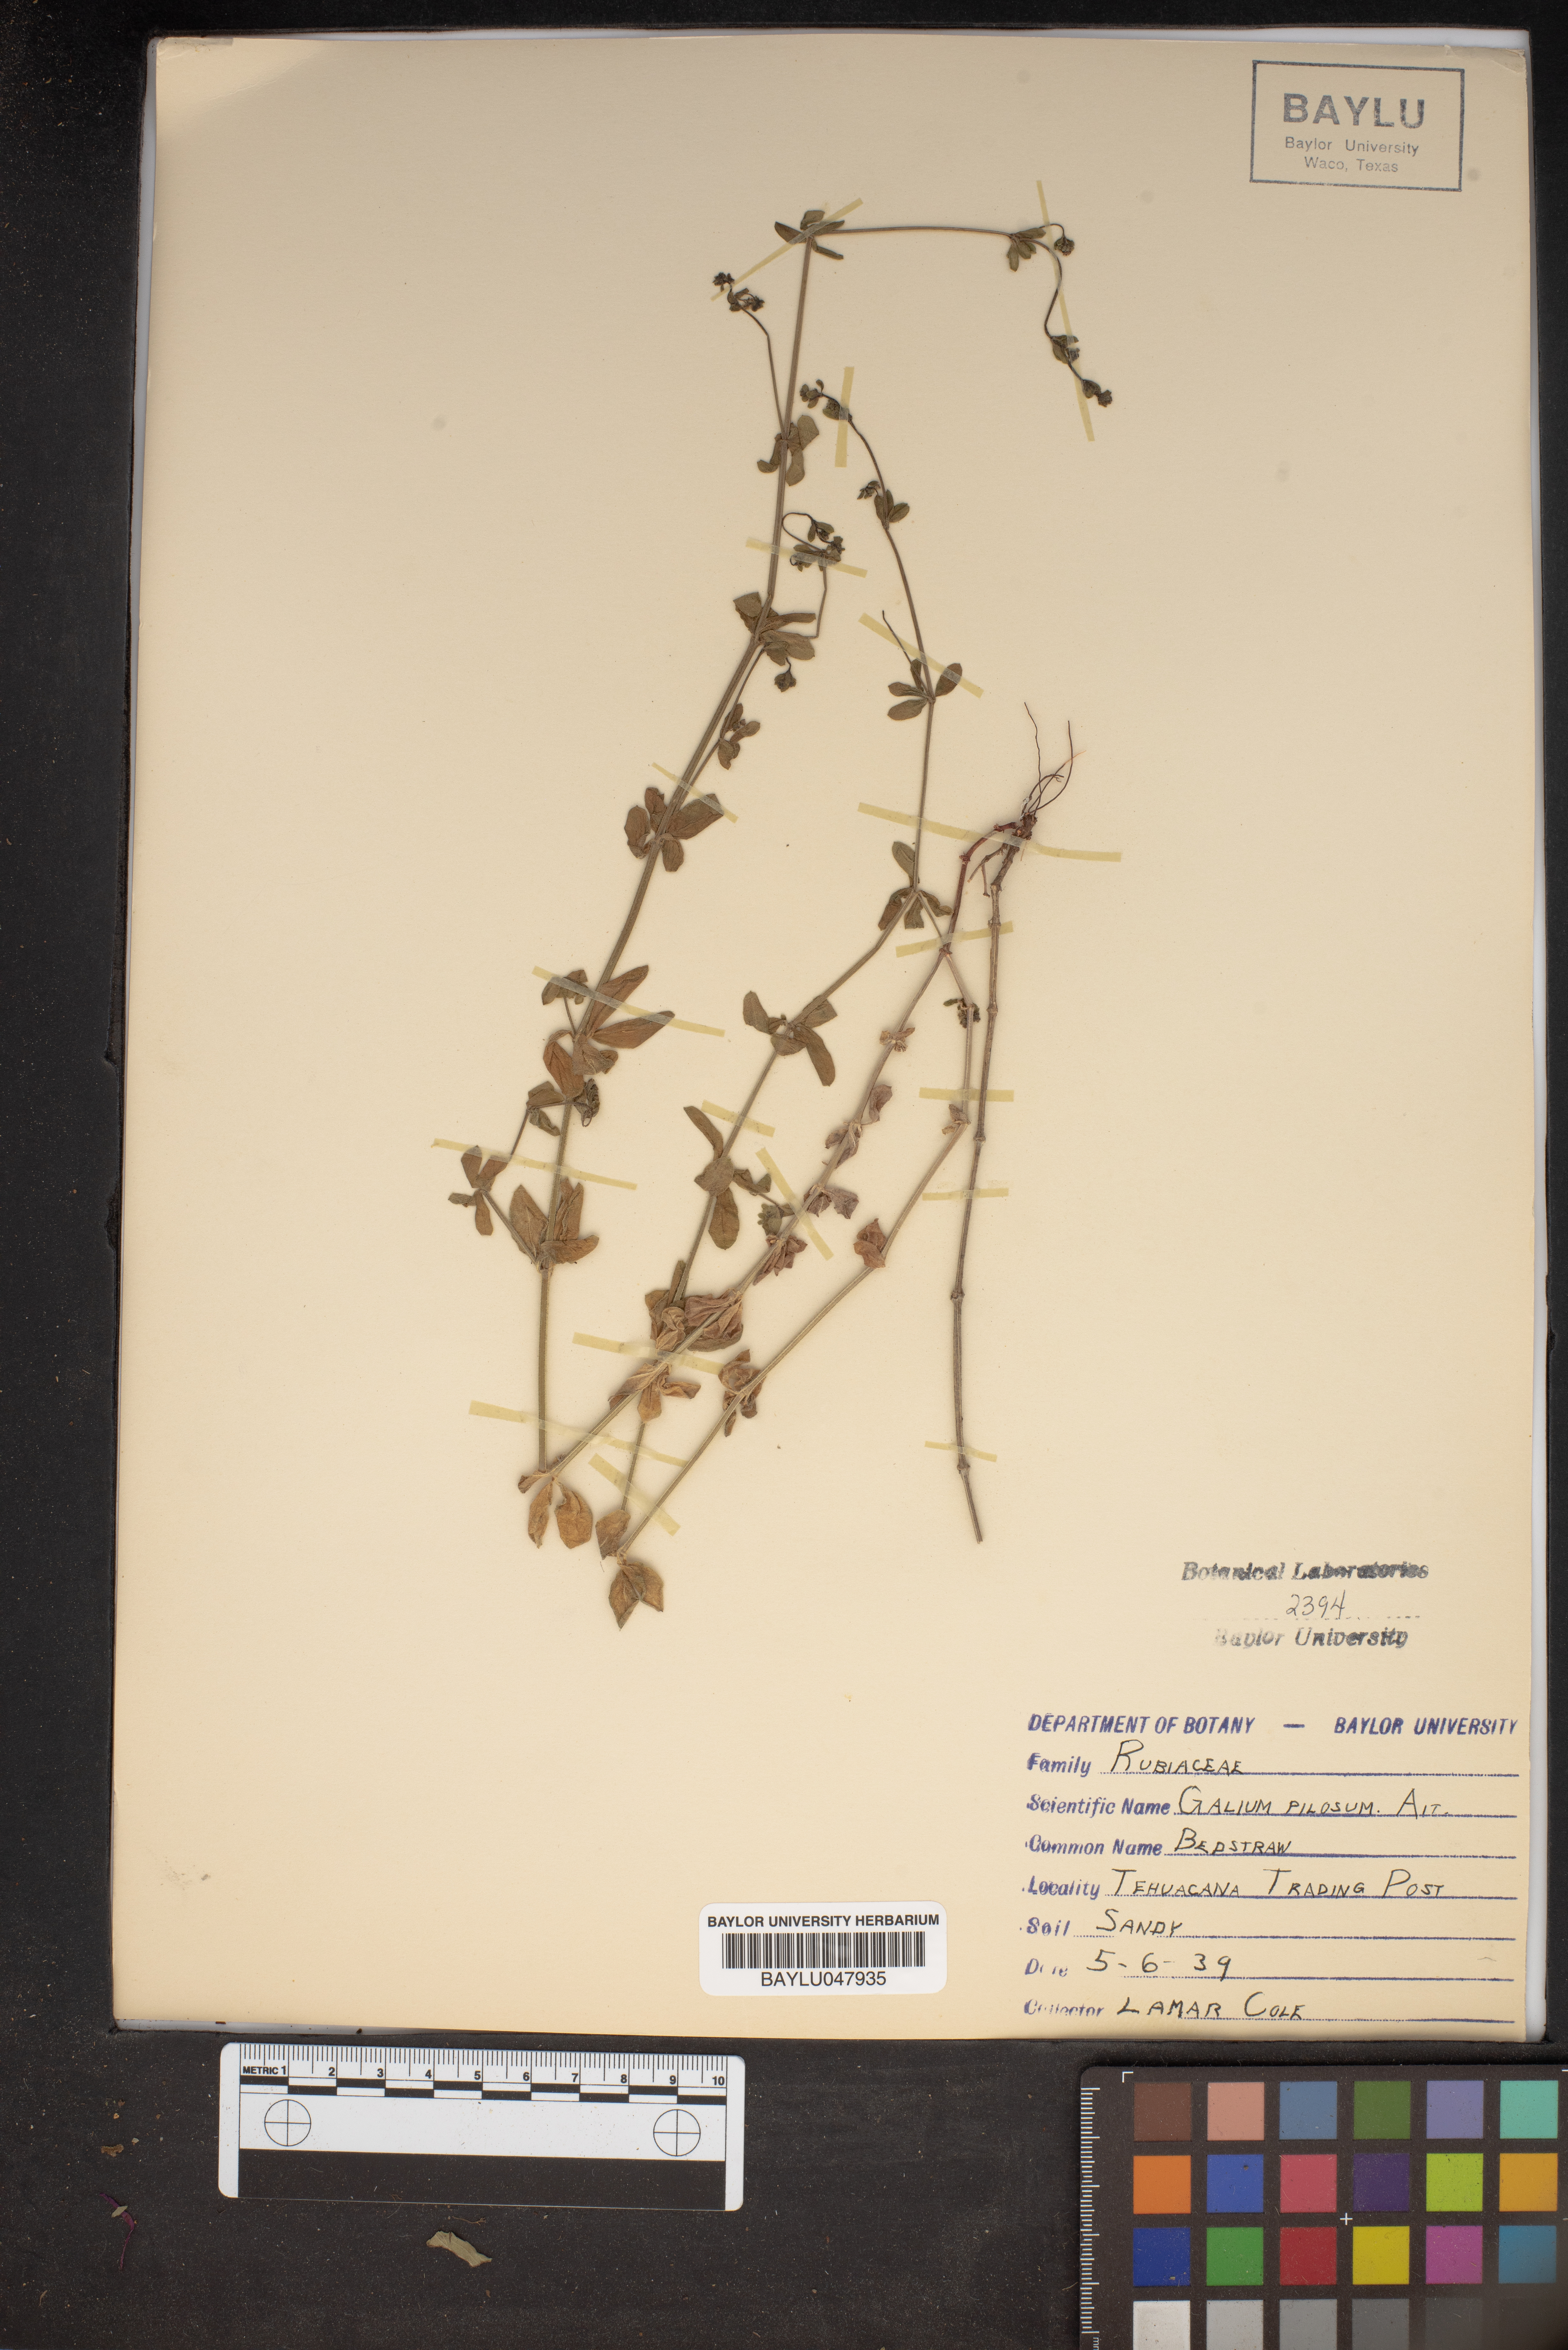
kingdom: Plantae
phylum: Tracheophyta
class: Magnoliopsida
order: Gentianales
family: Rubiaceae
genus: Galium
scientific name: Galium pilosum
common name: Hairy bedstraw
